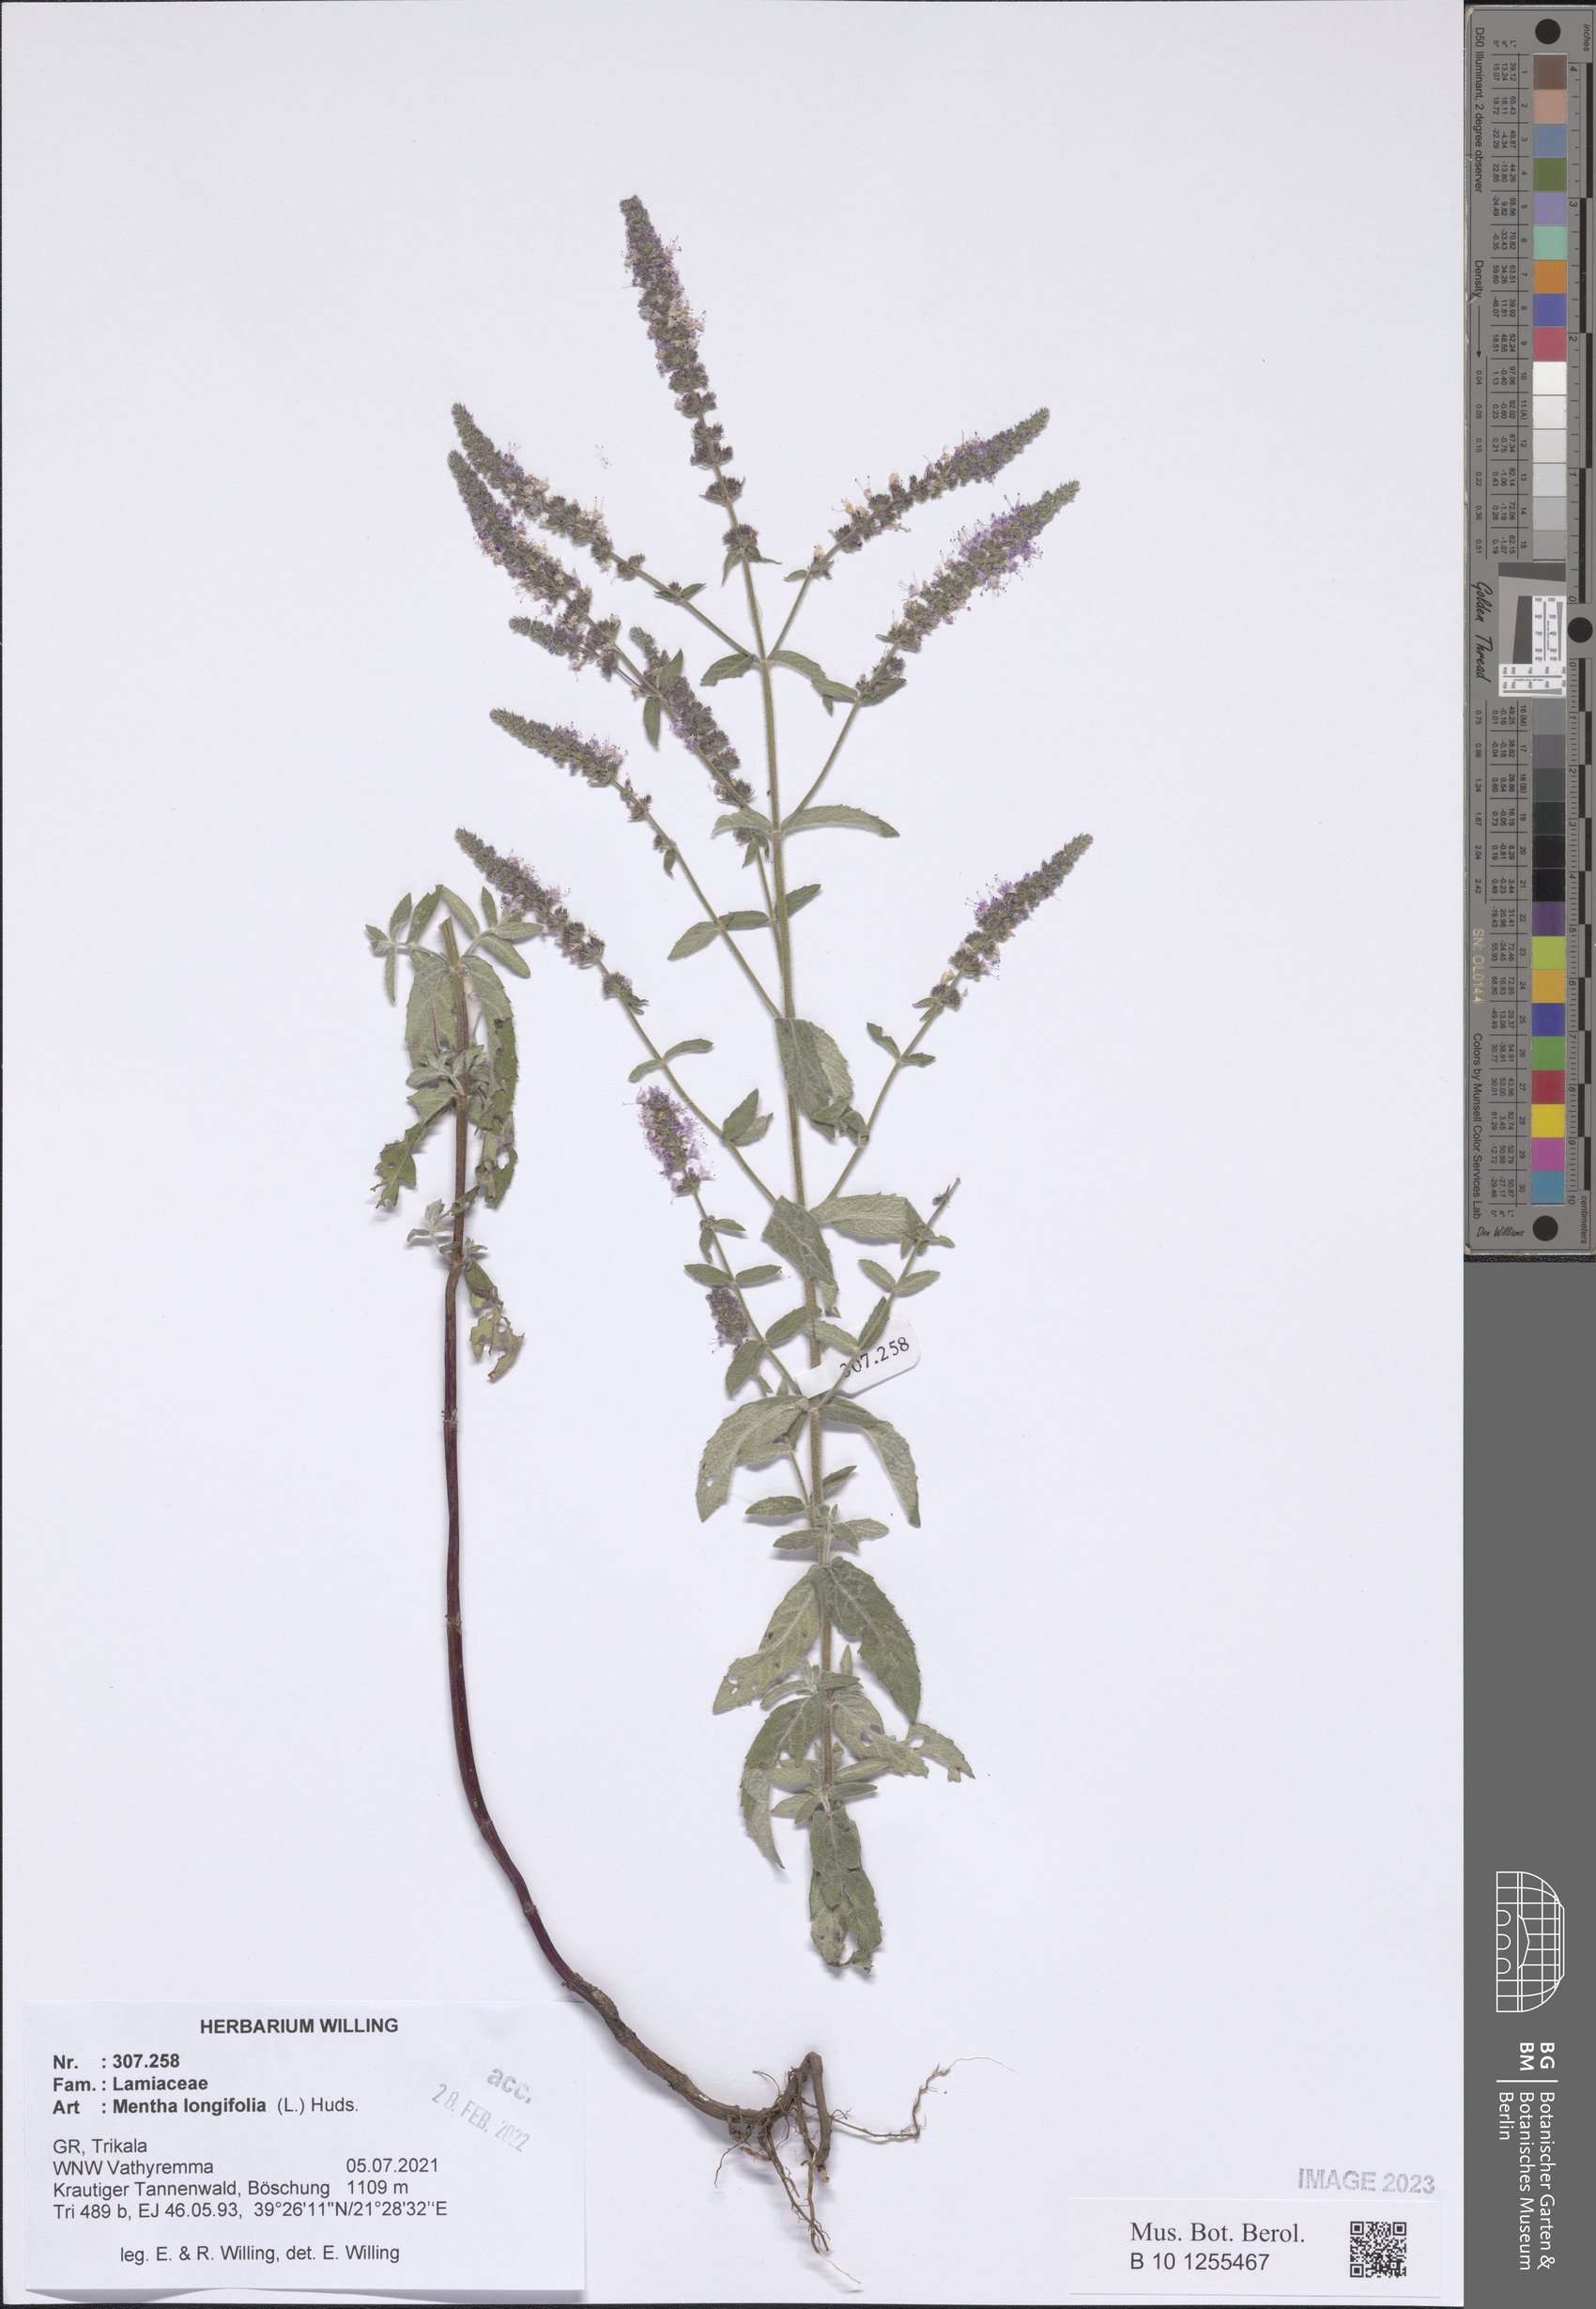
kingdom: Plantae
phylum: Tracheophyta
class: Magnoliopsida
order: Lamiales
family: Lamiaceae
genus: Mentha
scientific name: Mentha longifolia
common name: Horse mint
